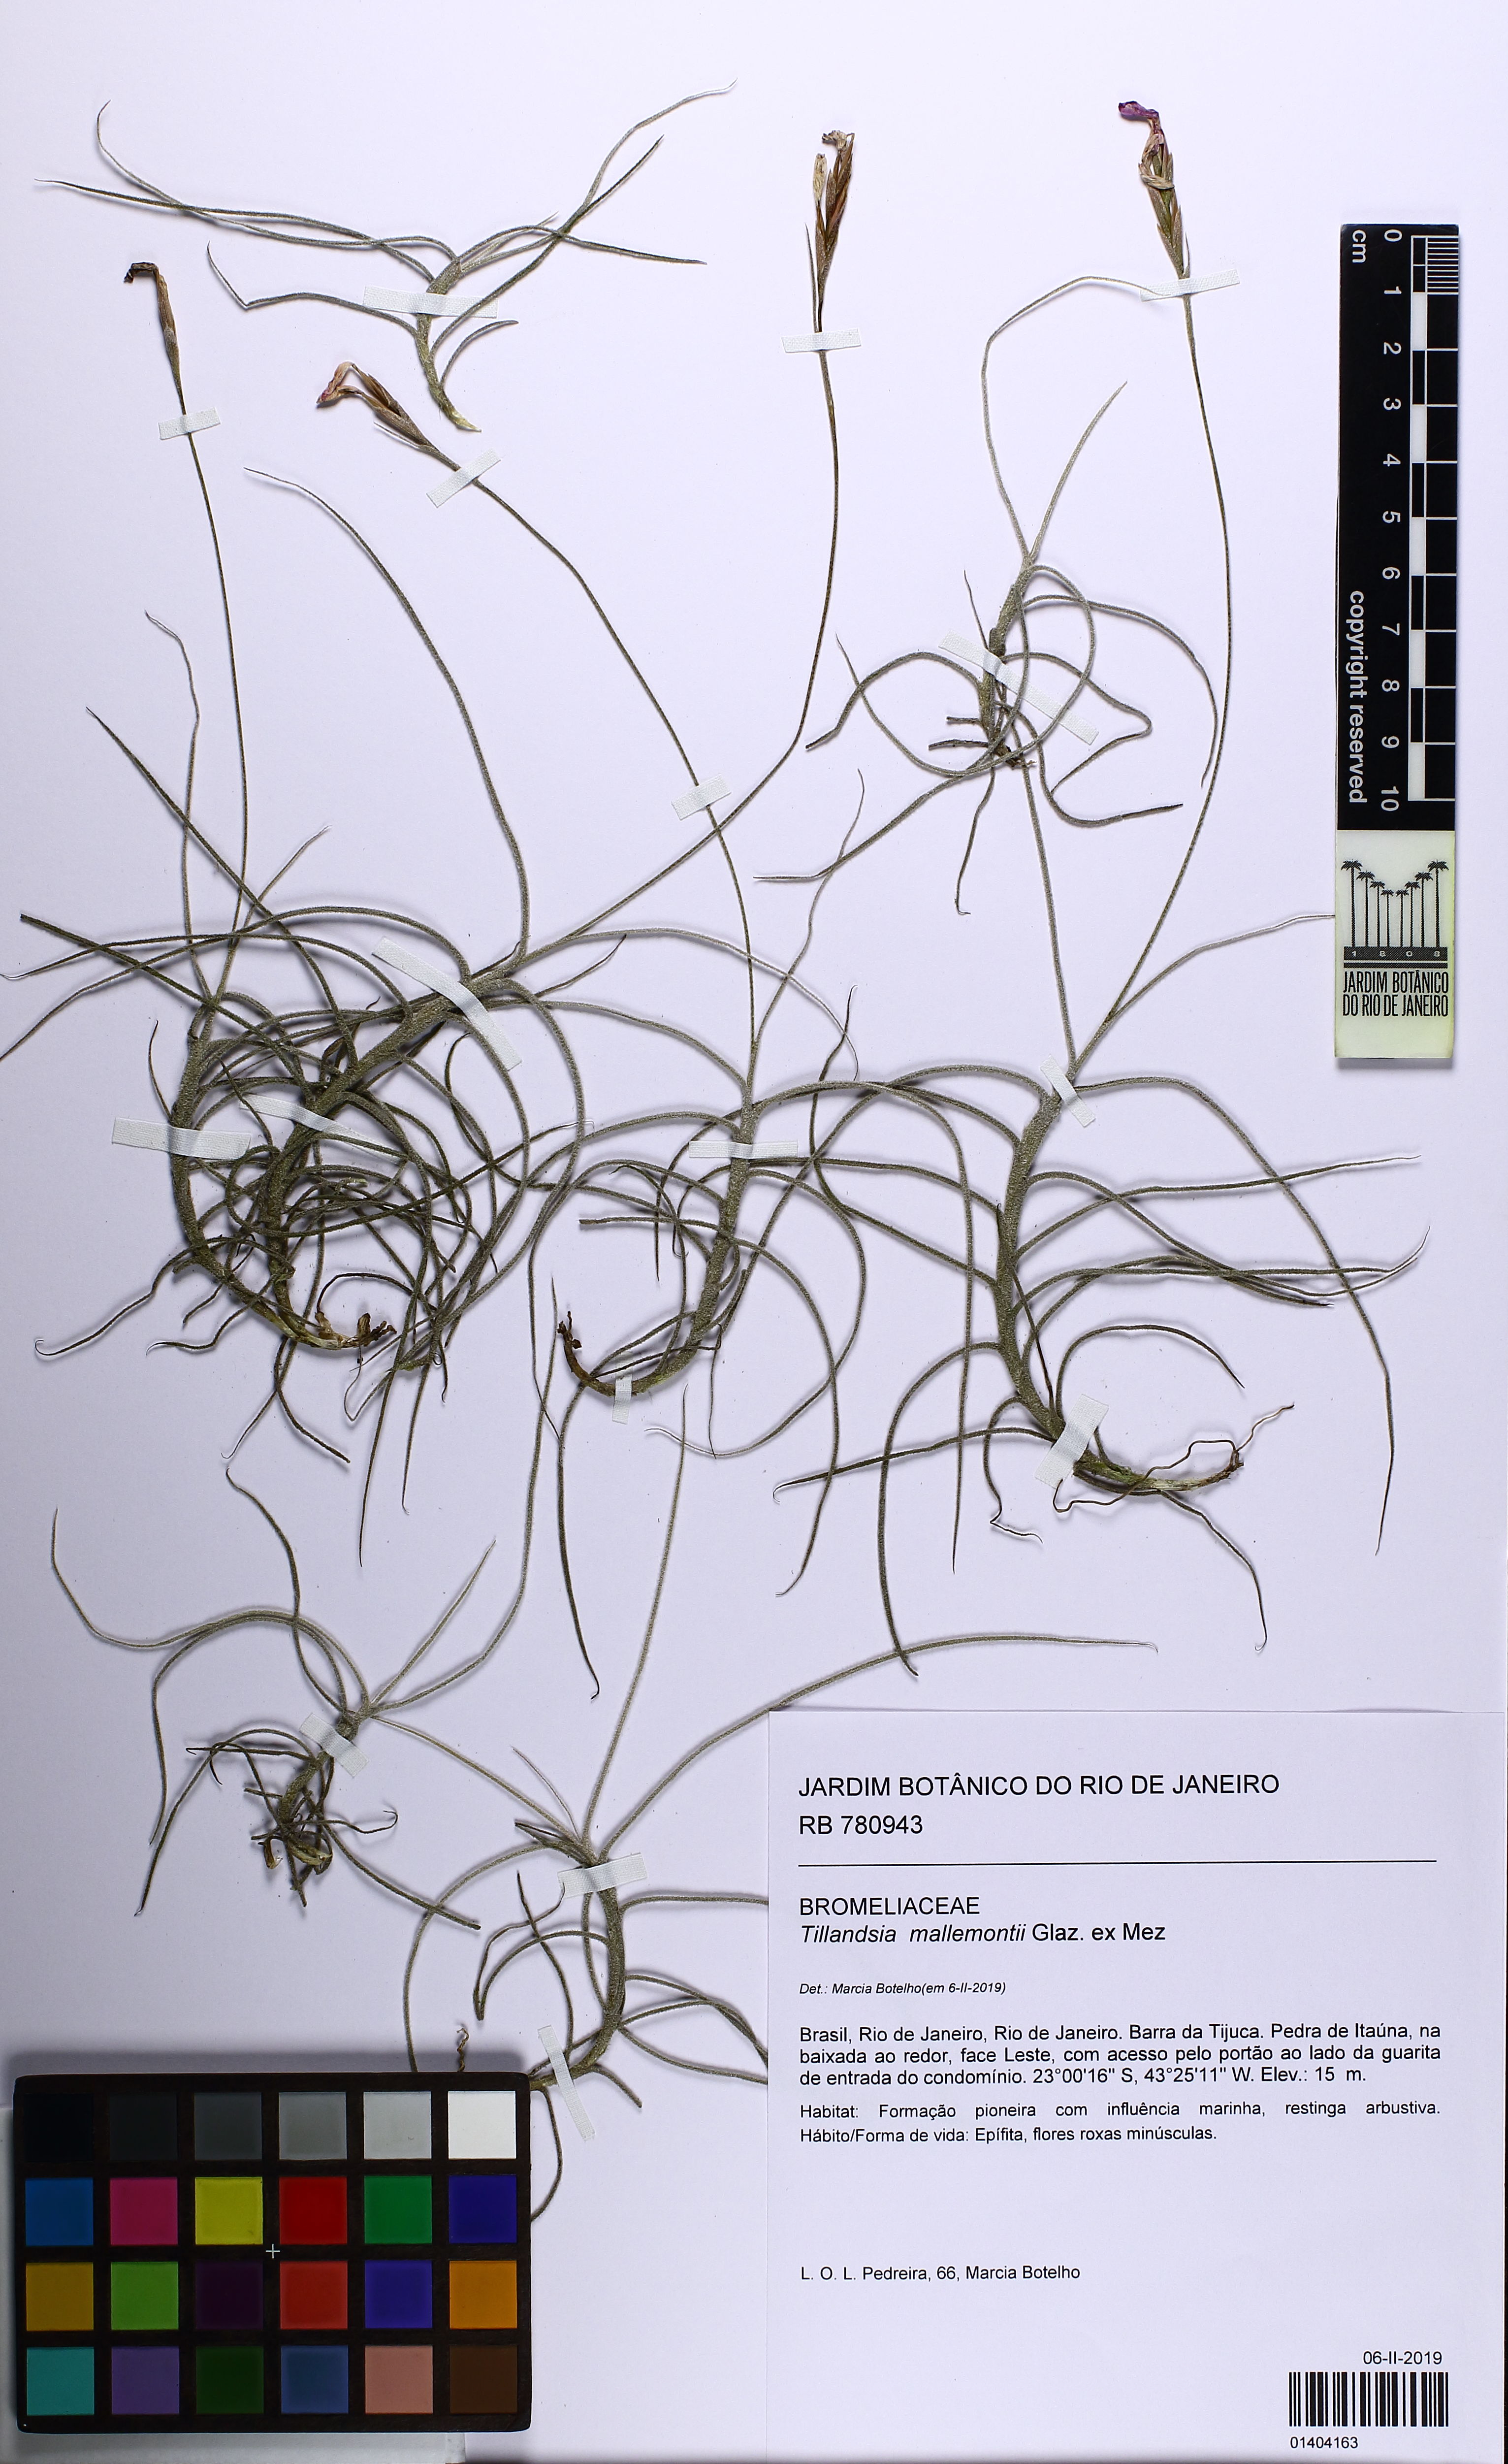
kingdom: Plantae
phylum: Tracheophyta
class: Liliopsida
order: Poales
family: Bromeliaceae
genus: Tillandsia
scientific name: Tillandsia mallemontii
